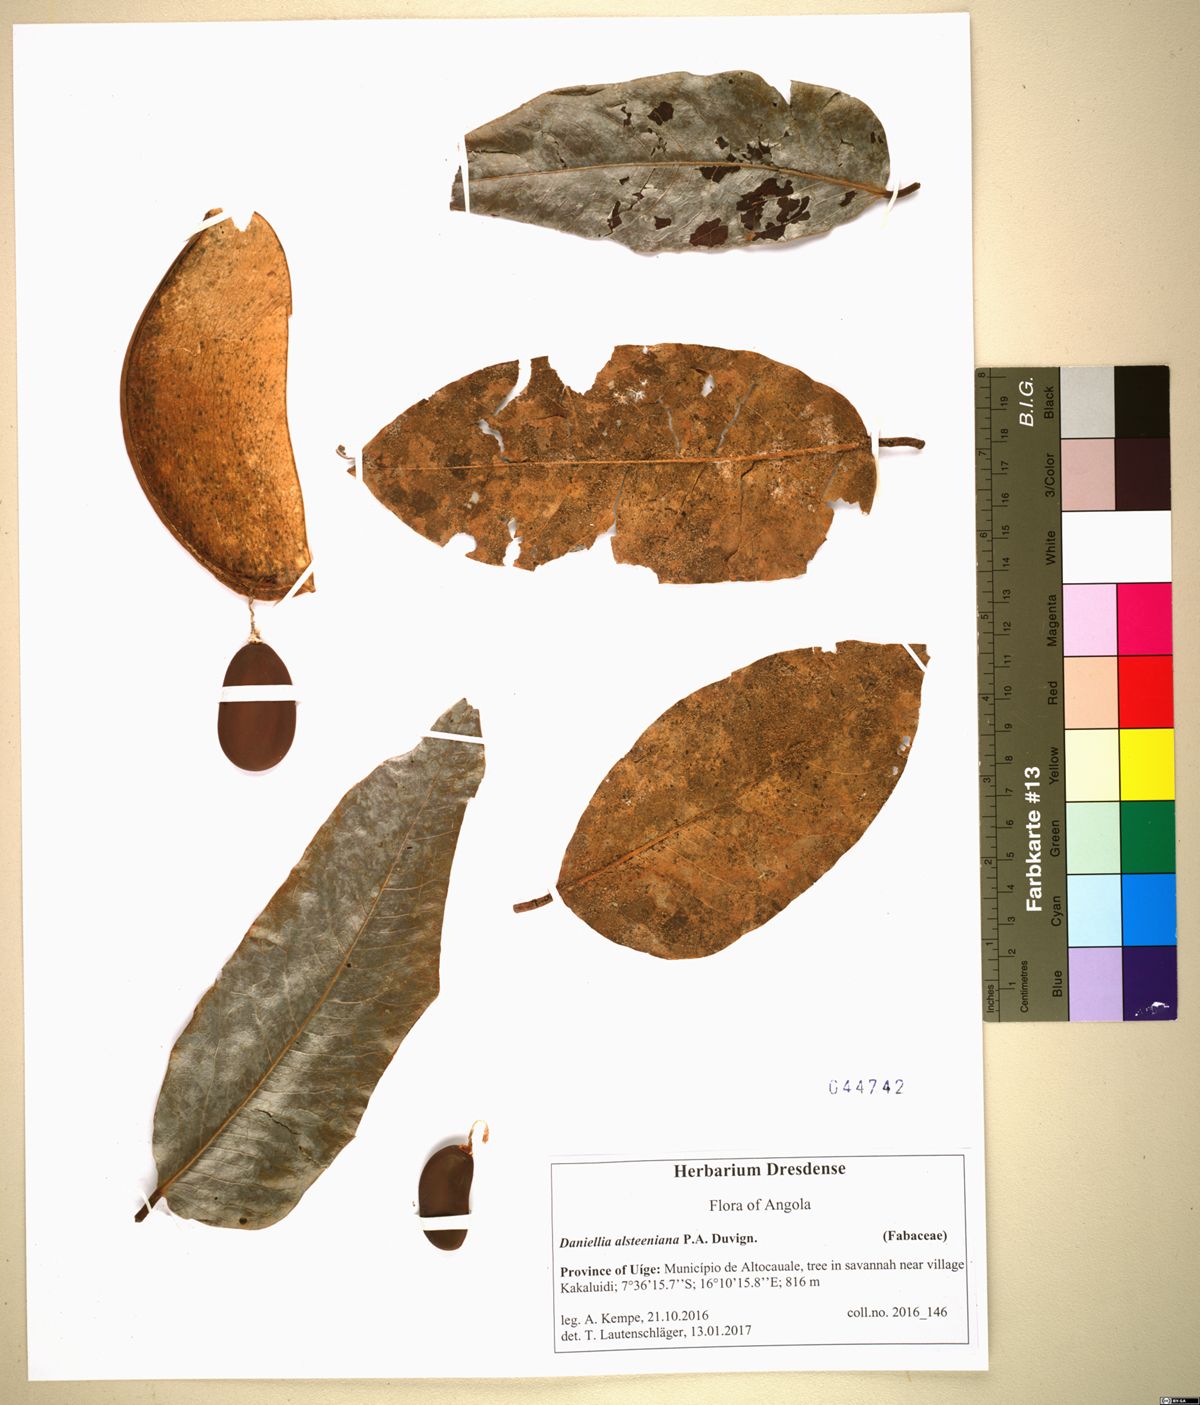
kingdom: Plantae
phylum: Tracheophyta
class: Magnoliopsida
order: Fabales
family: Fabaceae
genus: Daniellia
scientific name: Daniellia alsteeniana
